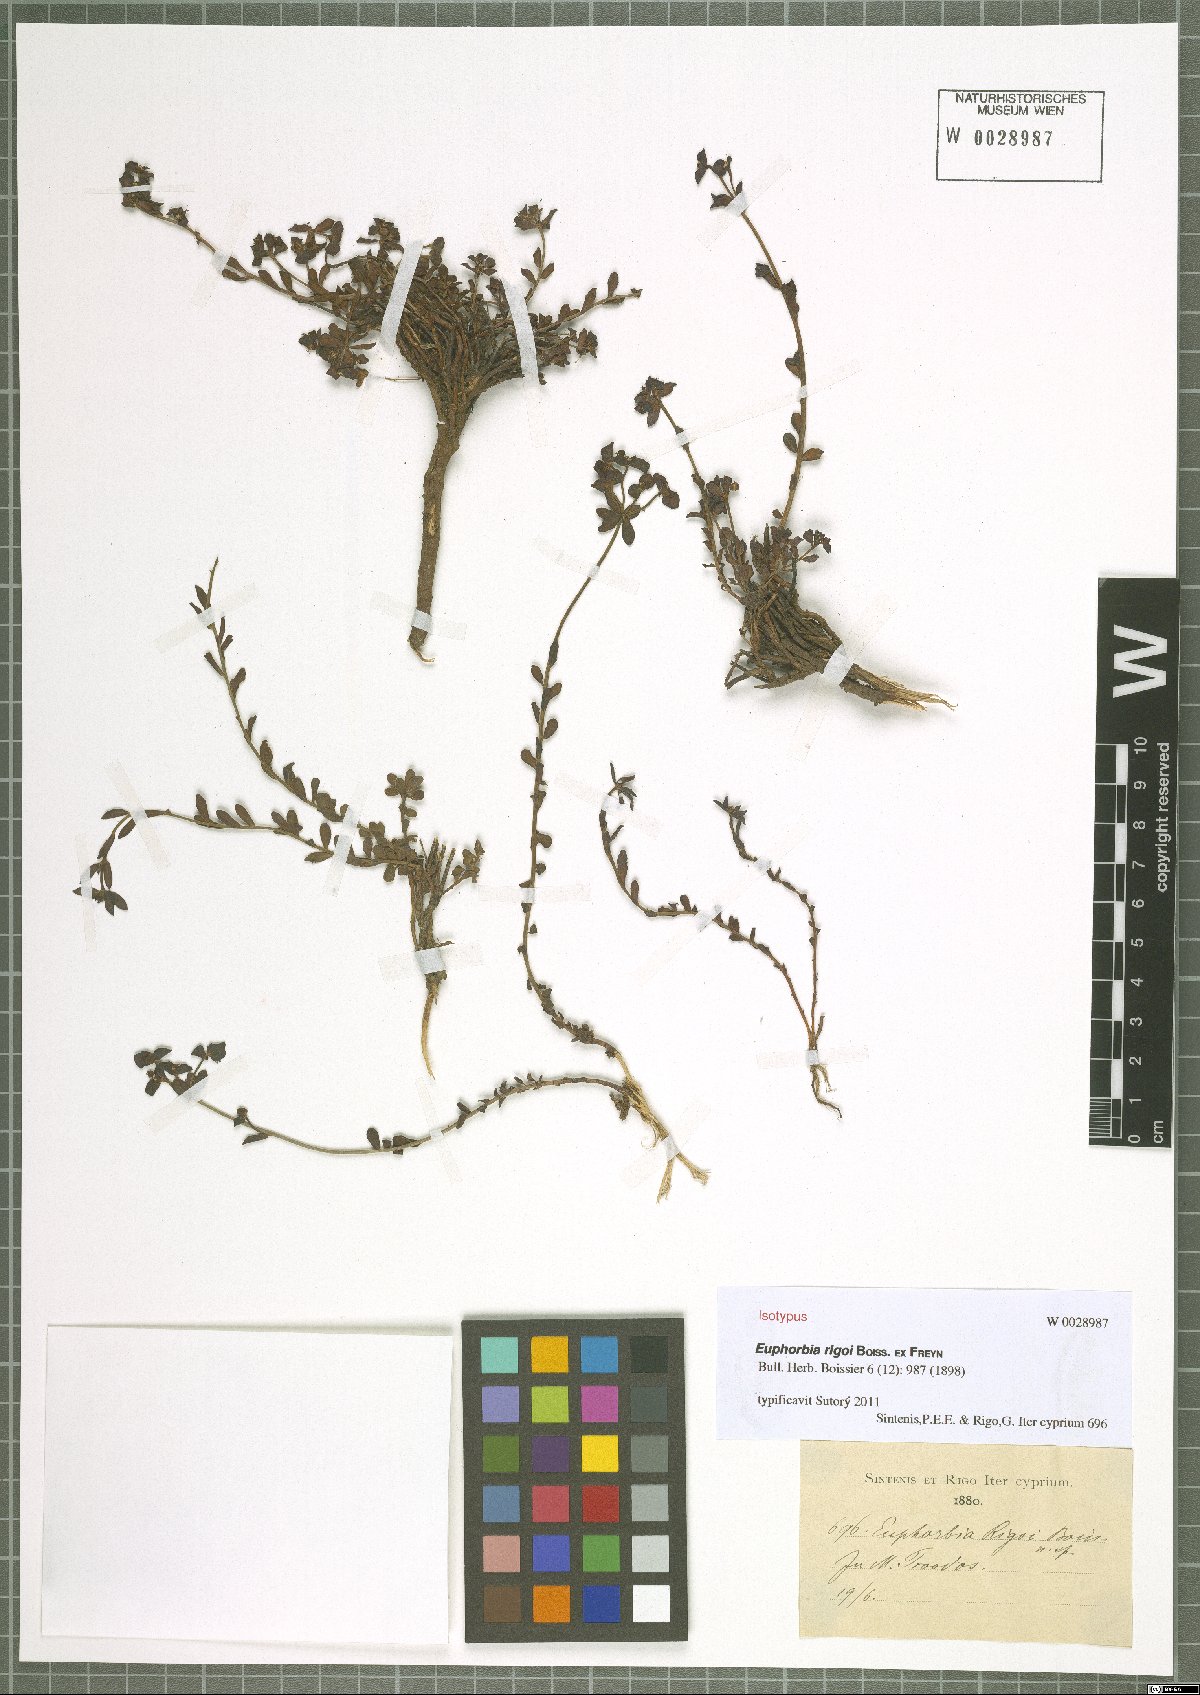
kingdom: Plantae
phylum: Tracheophyta
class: Magnoliopsida
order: Malpighiales
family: Euphorbiaceae
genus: Euphorbia
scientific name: Euphorbia cassia
